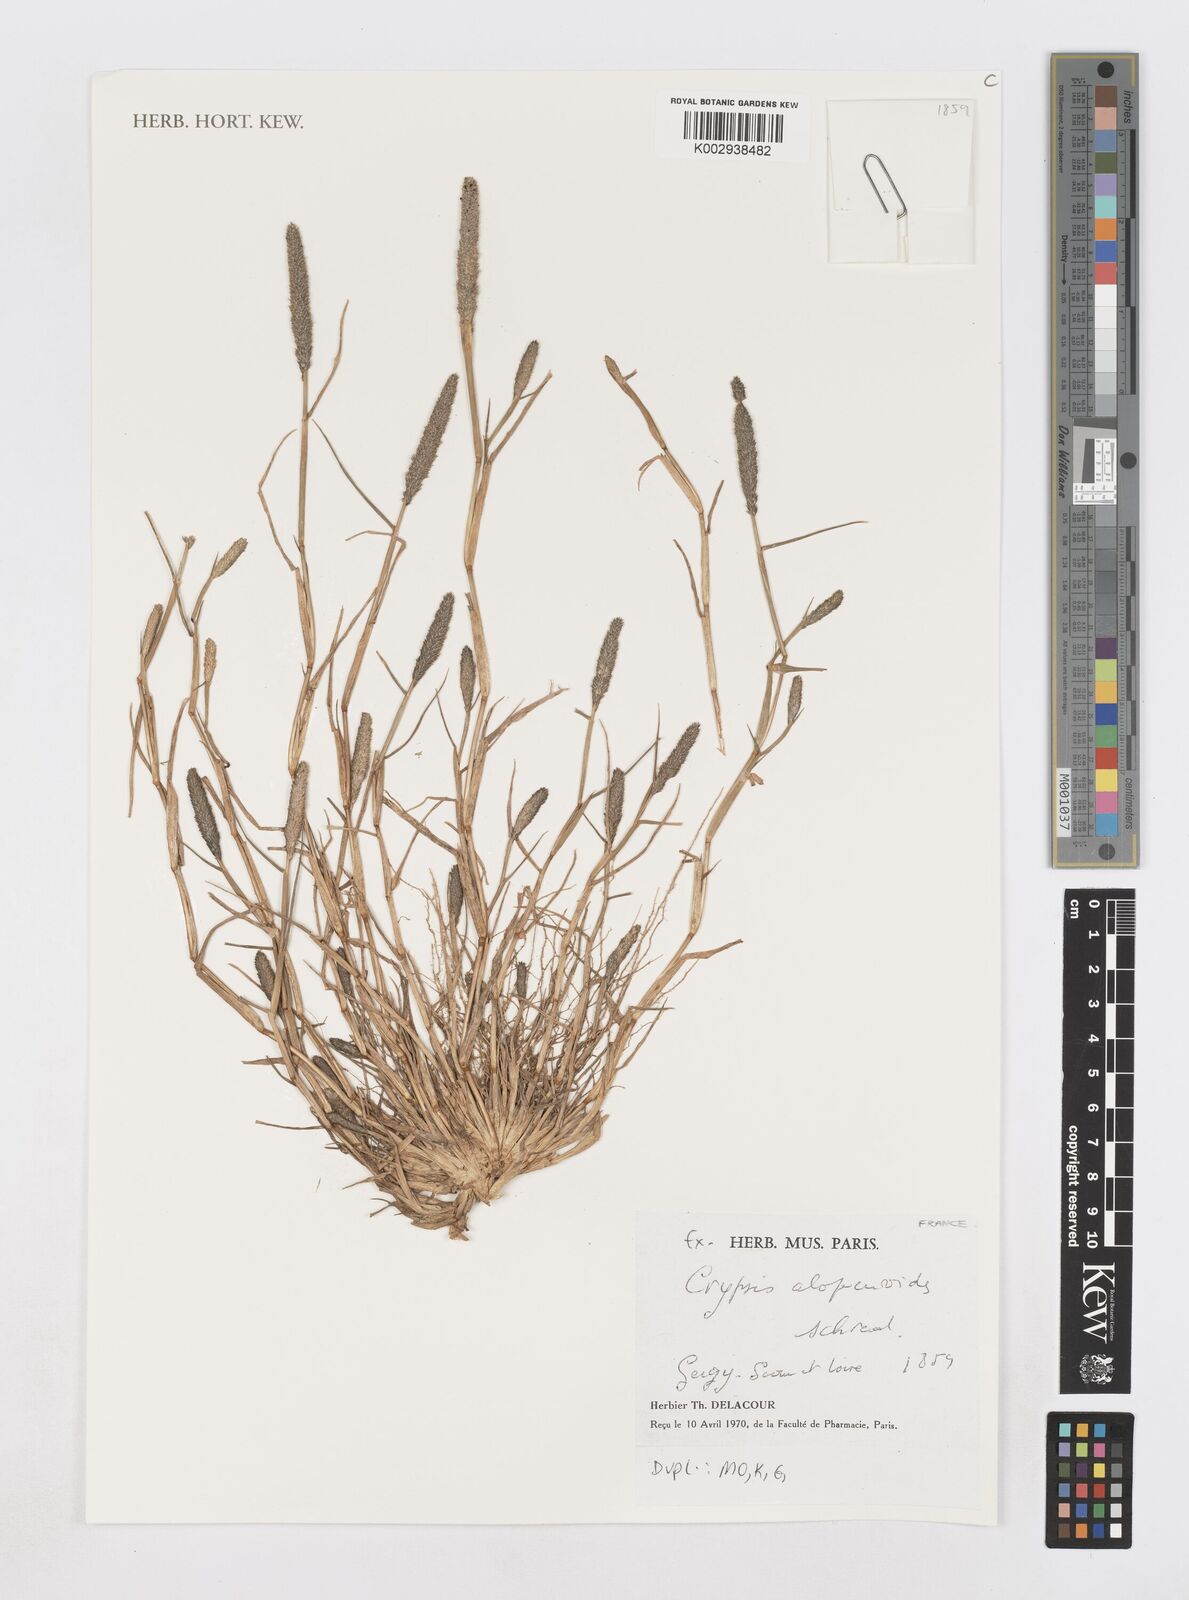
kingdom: Plantae
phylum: Tracheophyta
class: Liliopsida
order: Poales
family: Poaceae
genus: Sporobolus
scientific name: Sporobolus alopecuroides
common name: Foxtail pricklegrass
